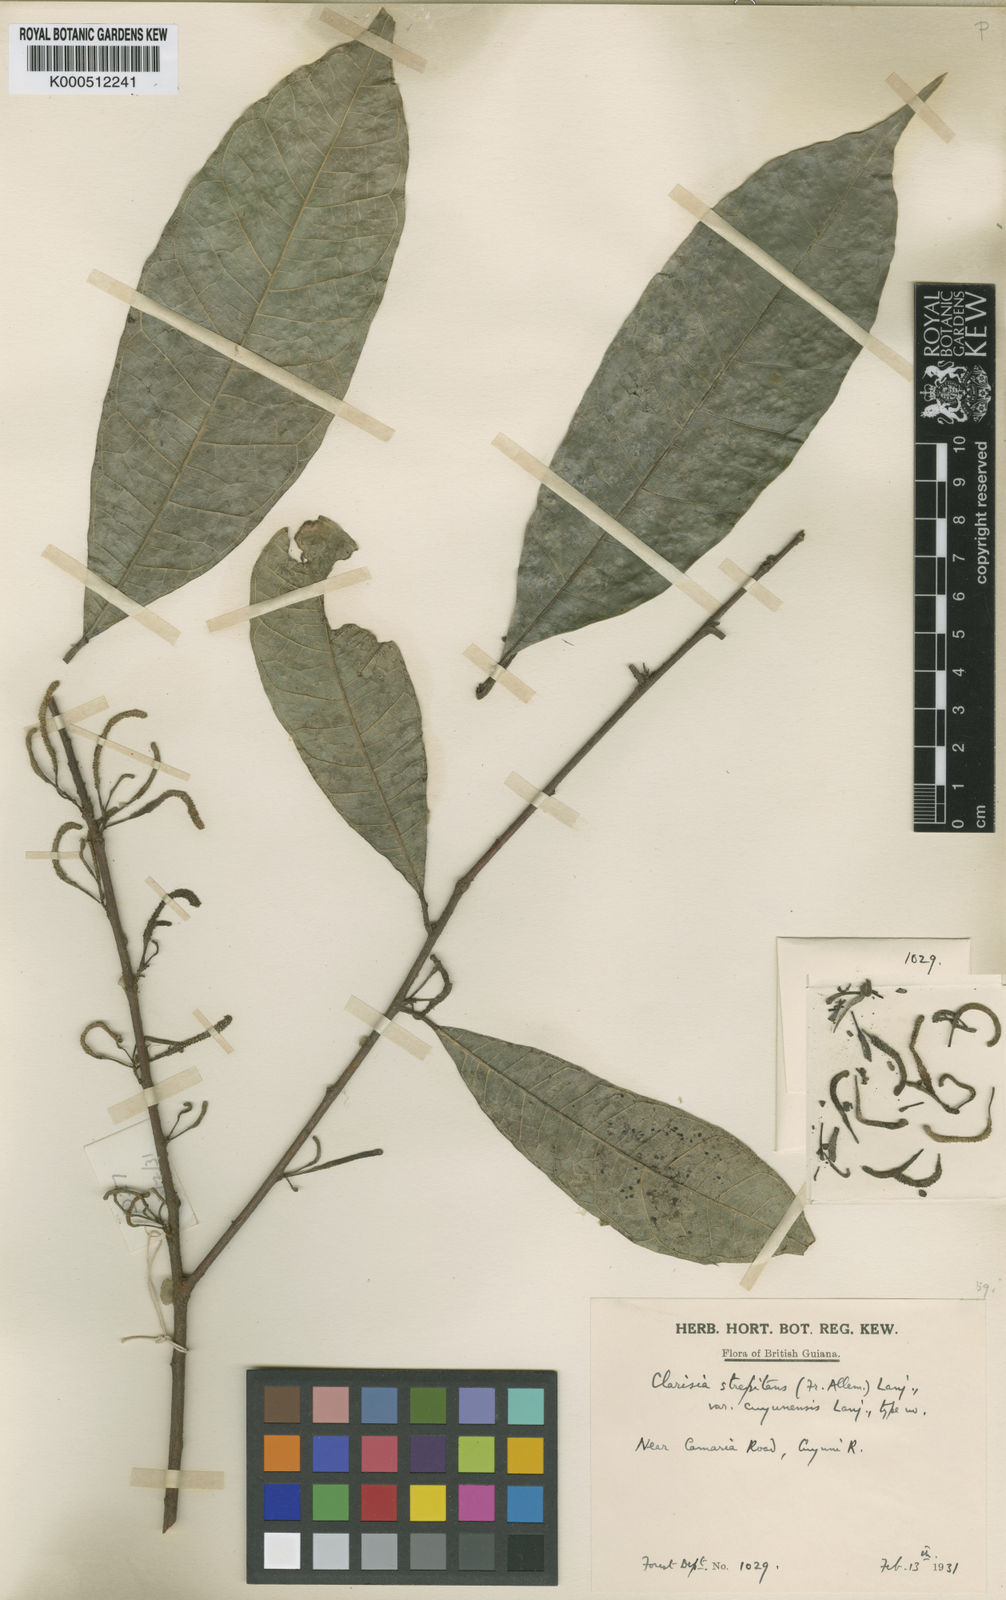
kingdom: Plantae
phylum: Tracheophyta
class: Magnoliopsida
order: Rosales
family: Moraceae
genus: Clarisia
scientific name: Clarisia ilicifolia
